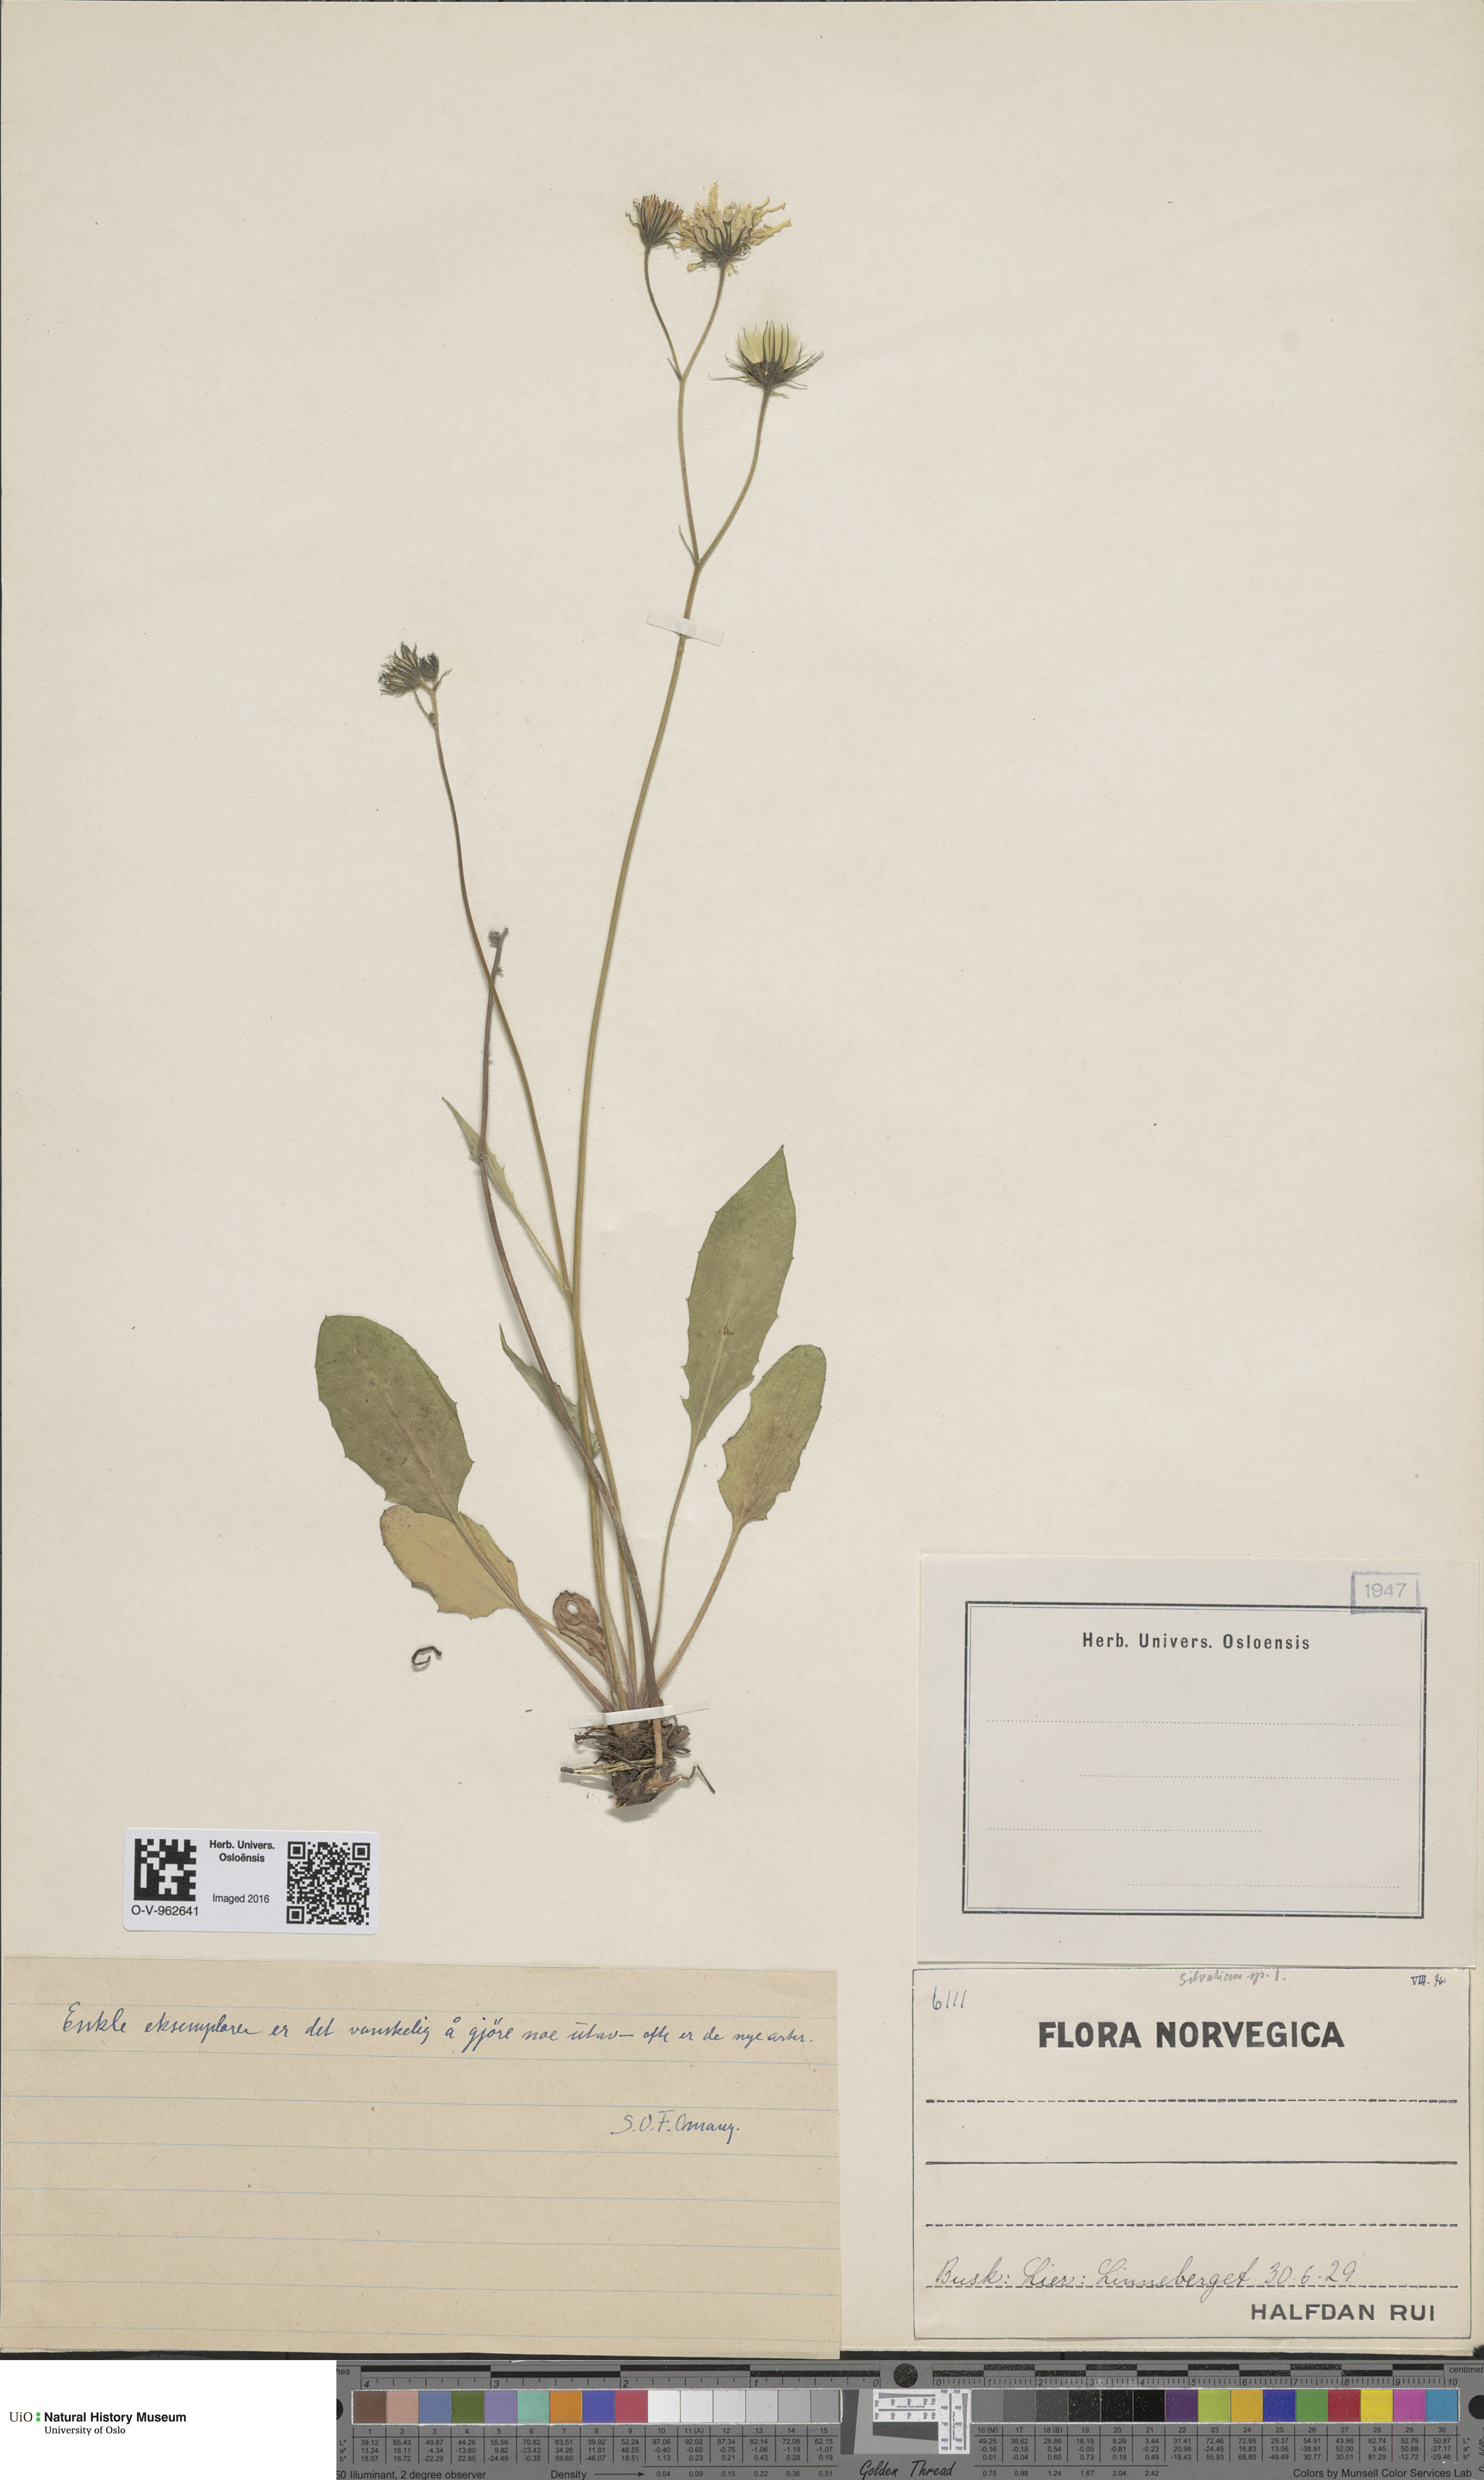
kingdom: Plantae
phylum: Tracheophyta
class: Magnoliopsida
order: Asterales
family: Asteraceae
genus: Hieracium
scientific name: Hieracium
